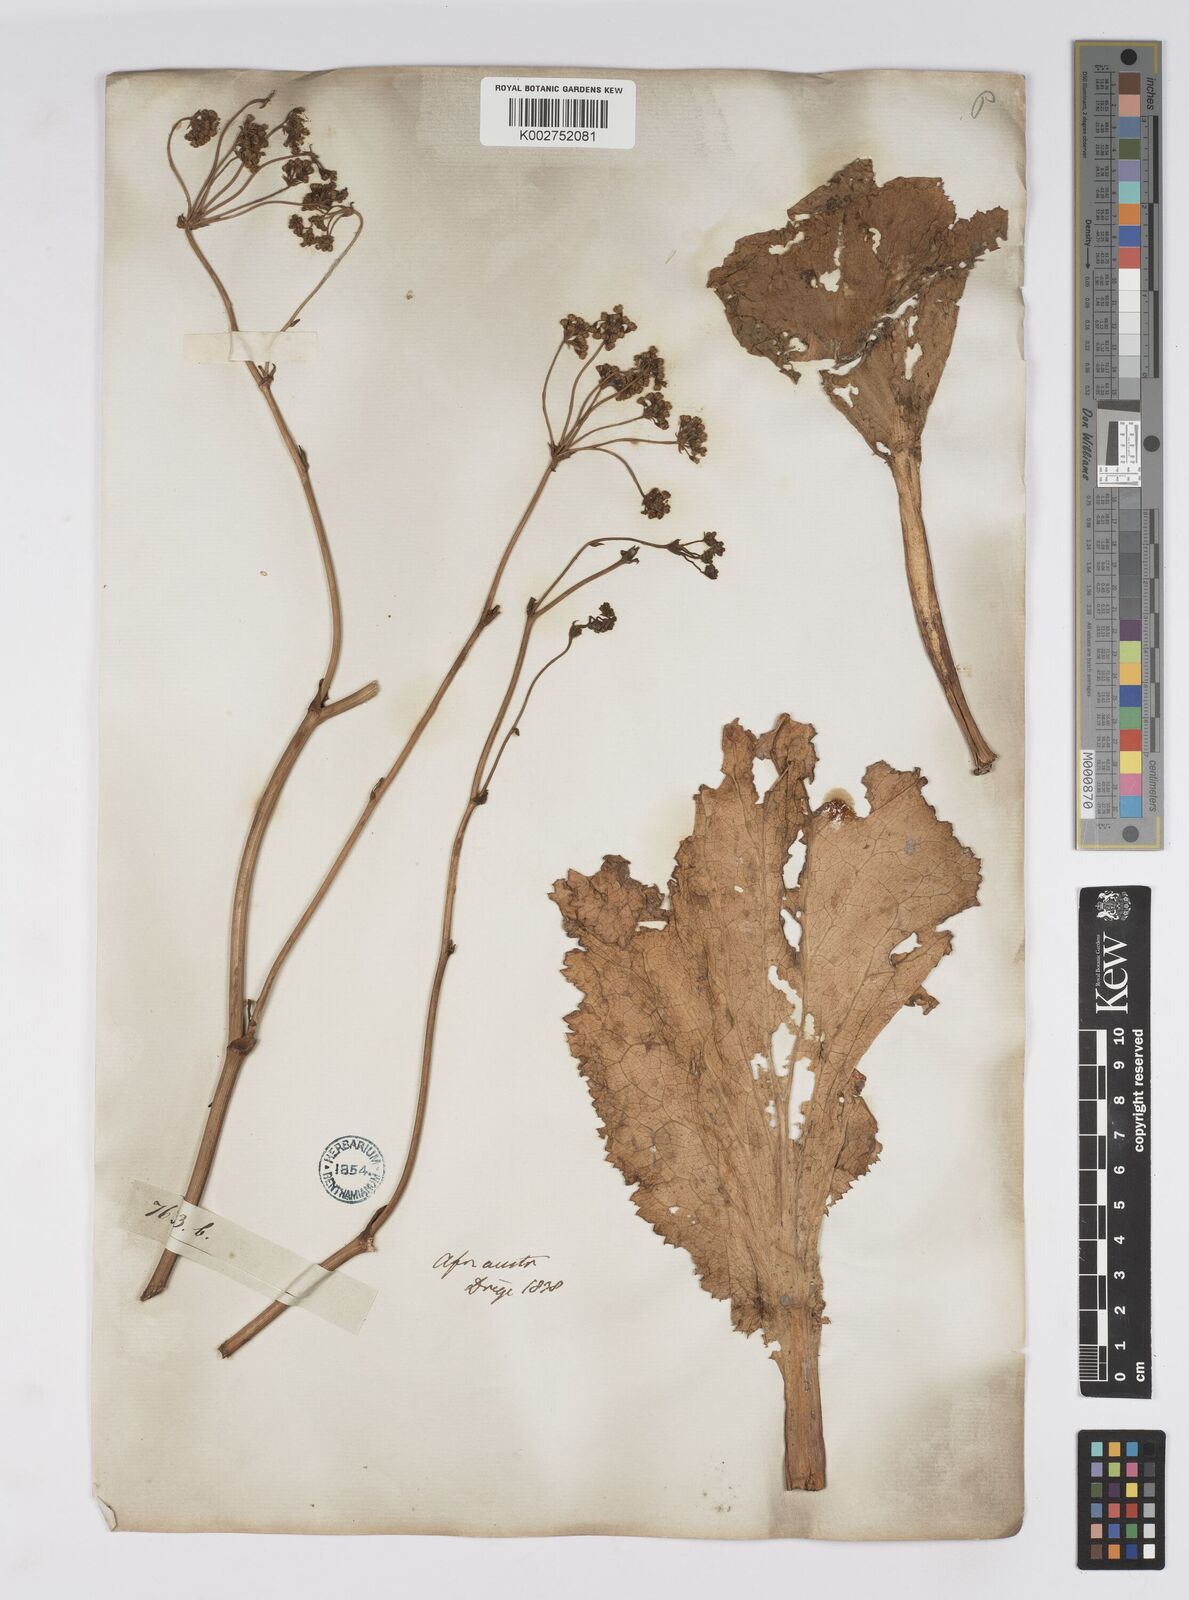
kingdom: Plantae
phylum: Tracheophyta
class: Magnoliopsida
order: Apiales
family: Apiaceae
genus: Lichtensteinia
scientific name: Lichtensteinia lacera
